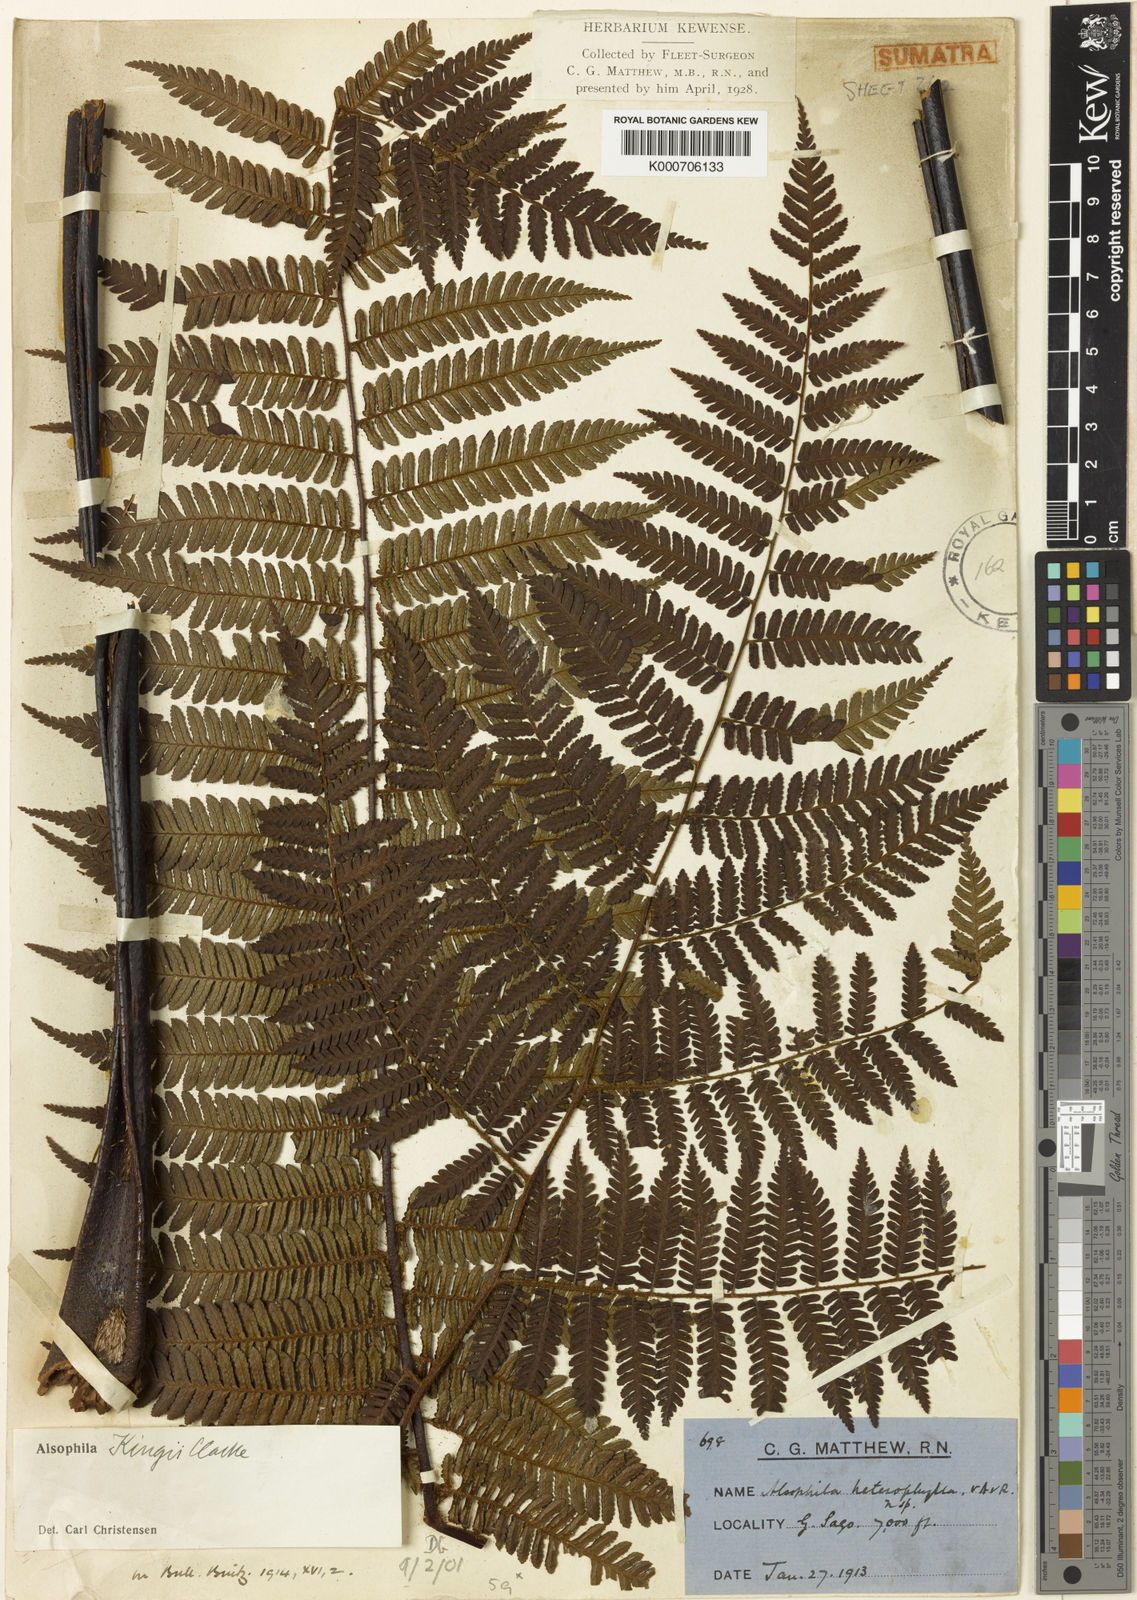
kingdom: Plantae
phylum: Tracheophyta
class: Polypodiopsida
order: Cyatheales
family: Cyatheaceae
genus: Gymnosphaera
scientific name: Gymnosphaera lurida
